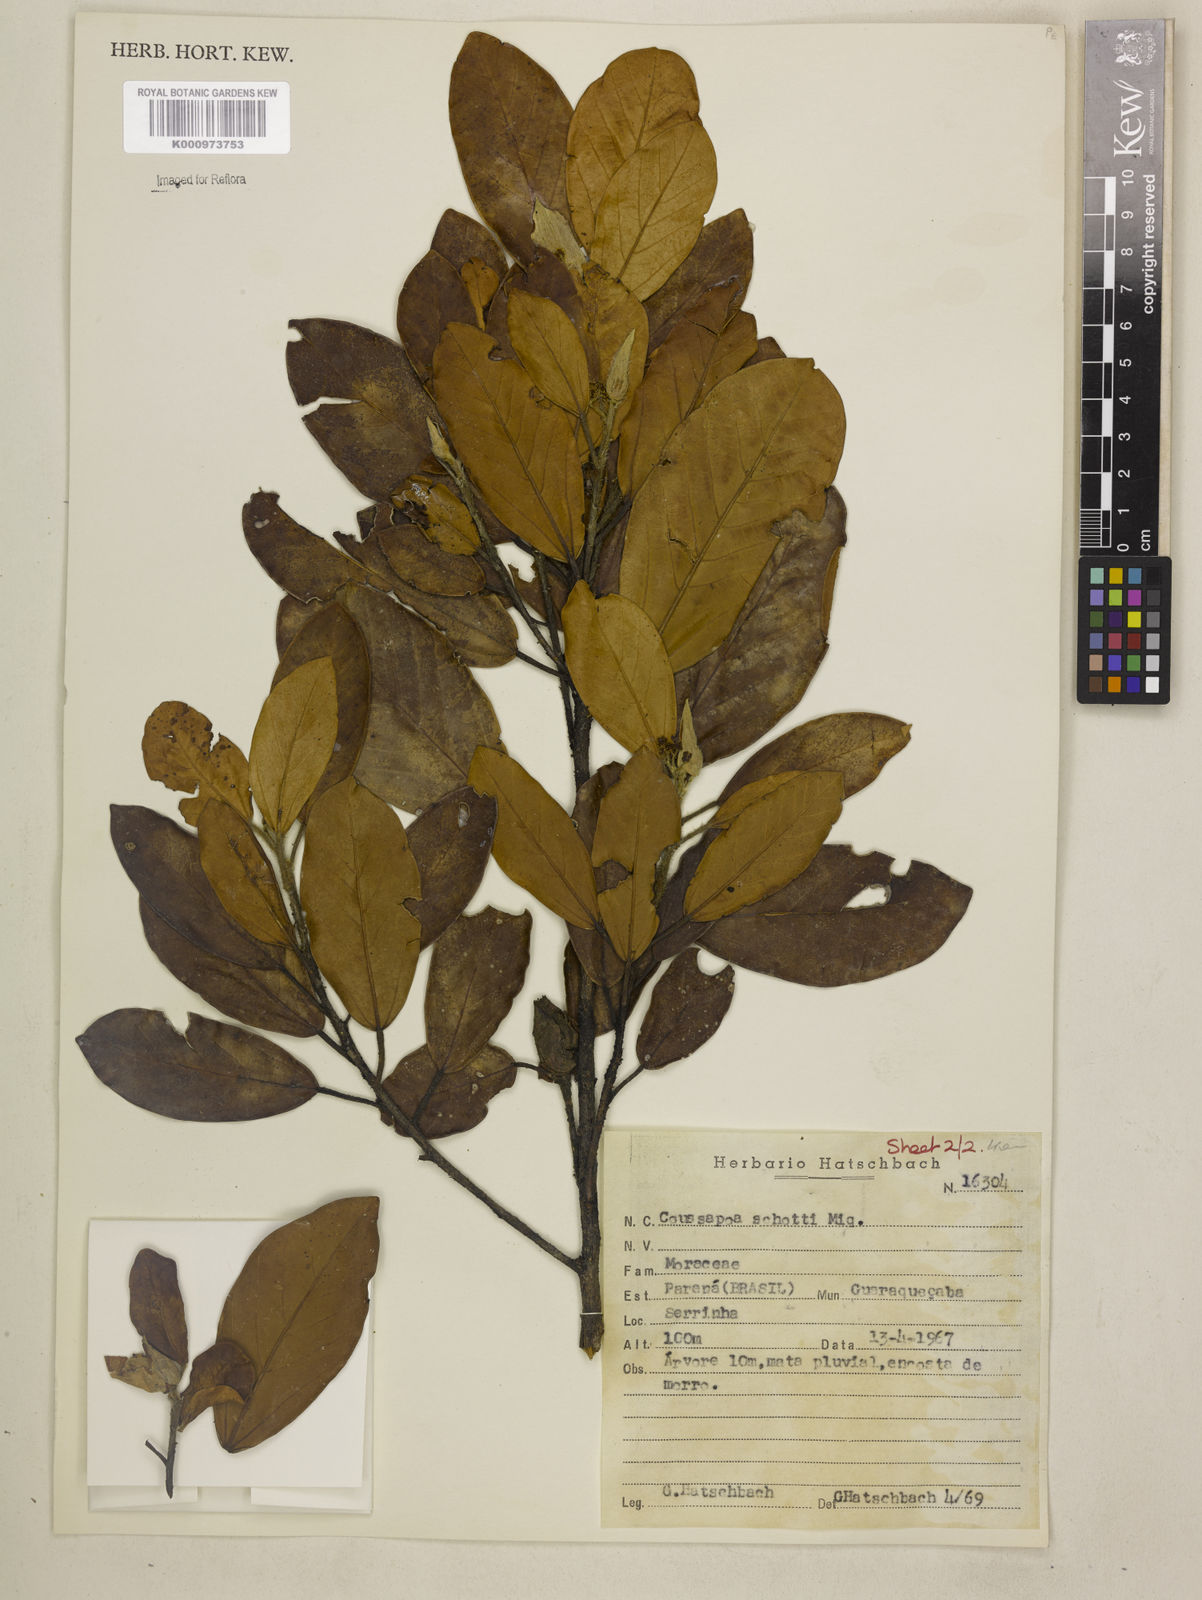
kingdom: Plantae
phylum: Tracheophyta
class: Magnoliopsida
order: Rosales
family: Urticaceae
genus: Coussapoa
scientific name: Coussapoa microcarpa
